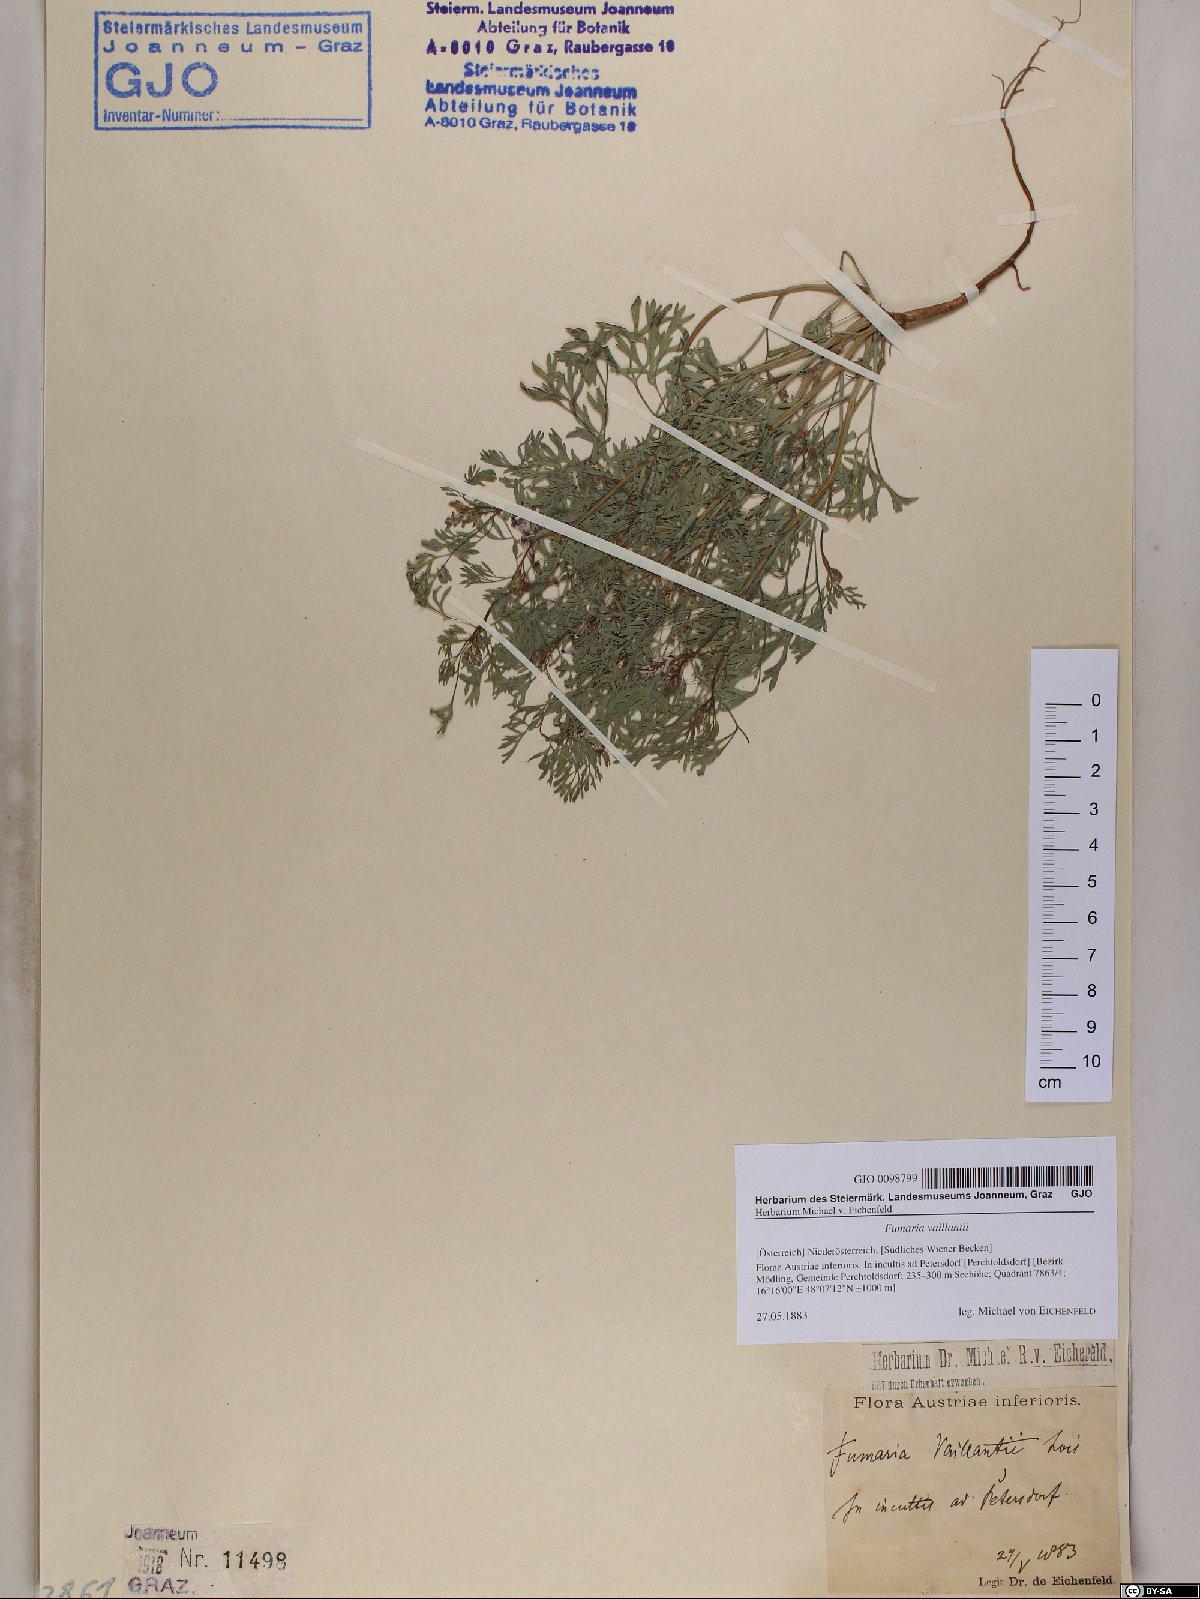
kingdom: Plantae
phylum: Tracheophyta
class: Magnoliopsida
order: Ranunculales
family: Papaveraceae
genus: Fumaria
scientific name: Fumaria vaillantii
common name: Few-flowered fumitory
